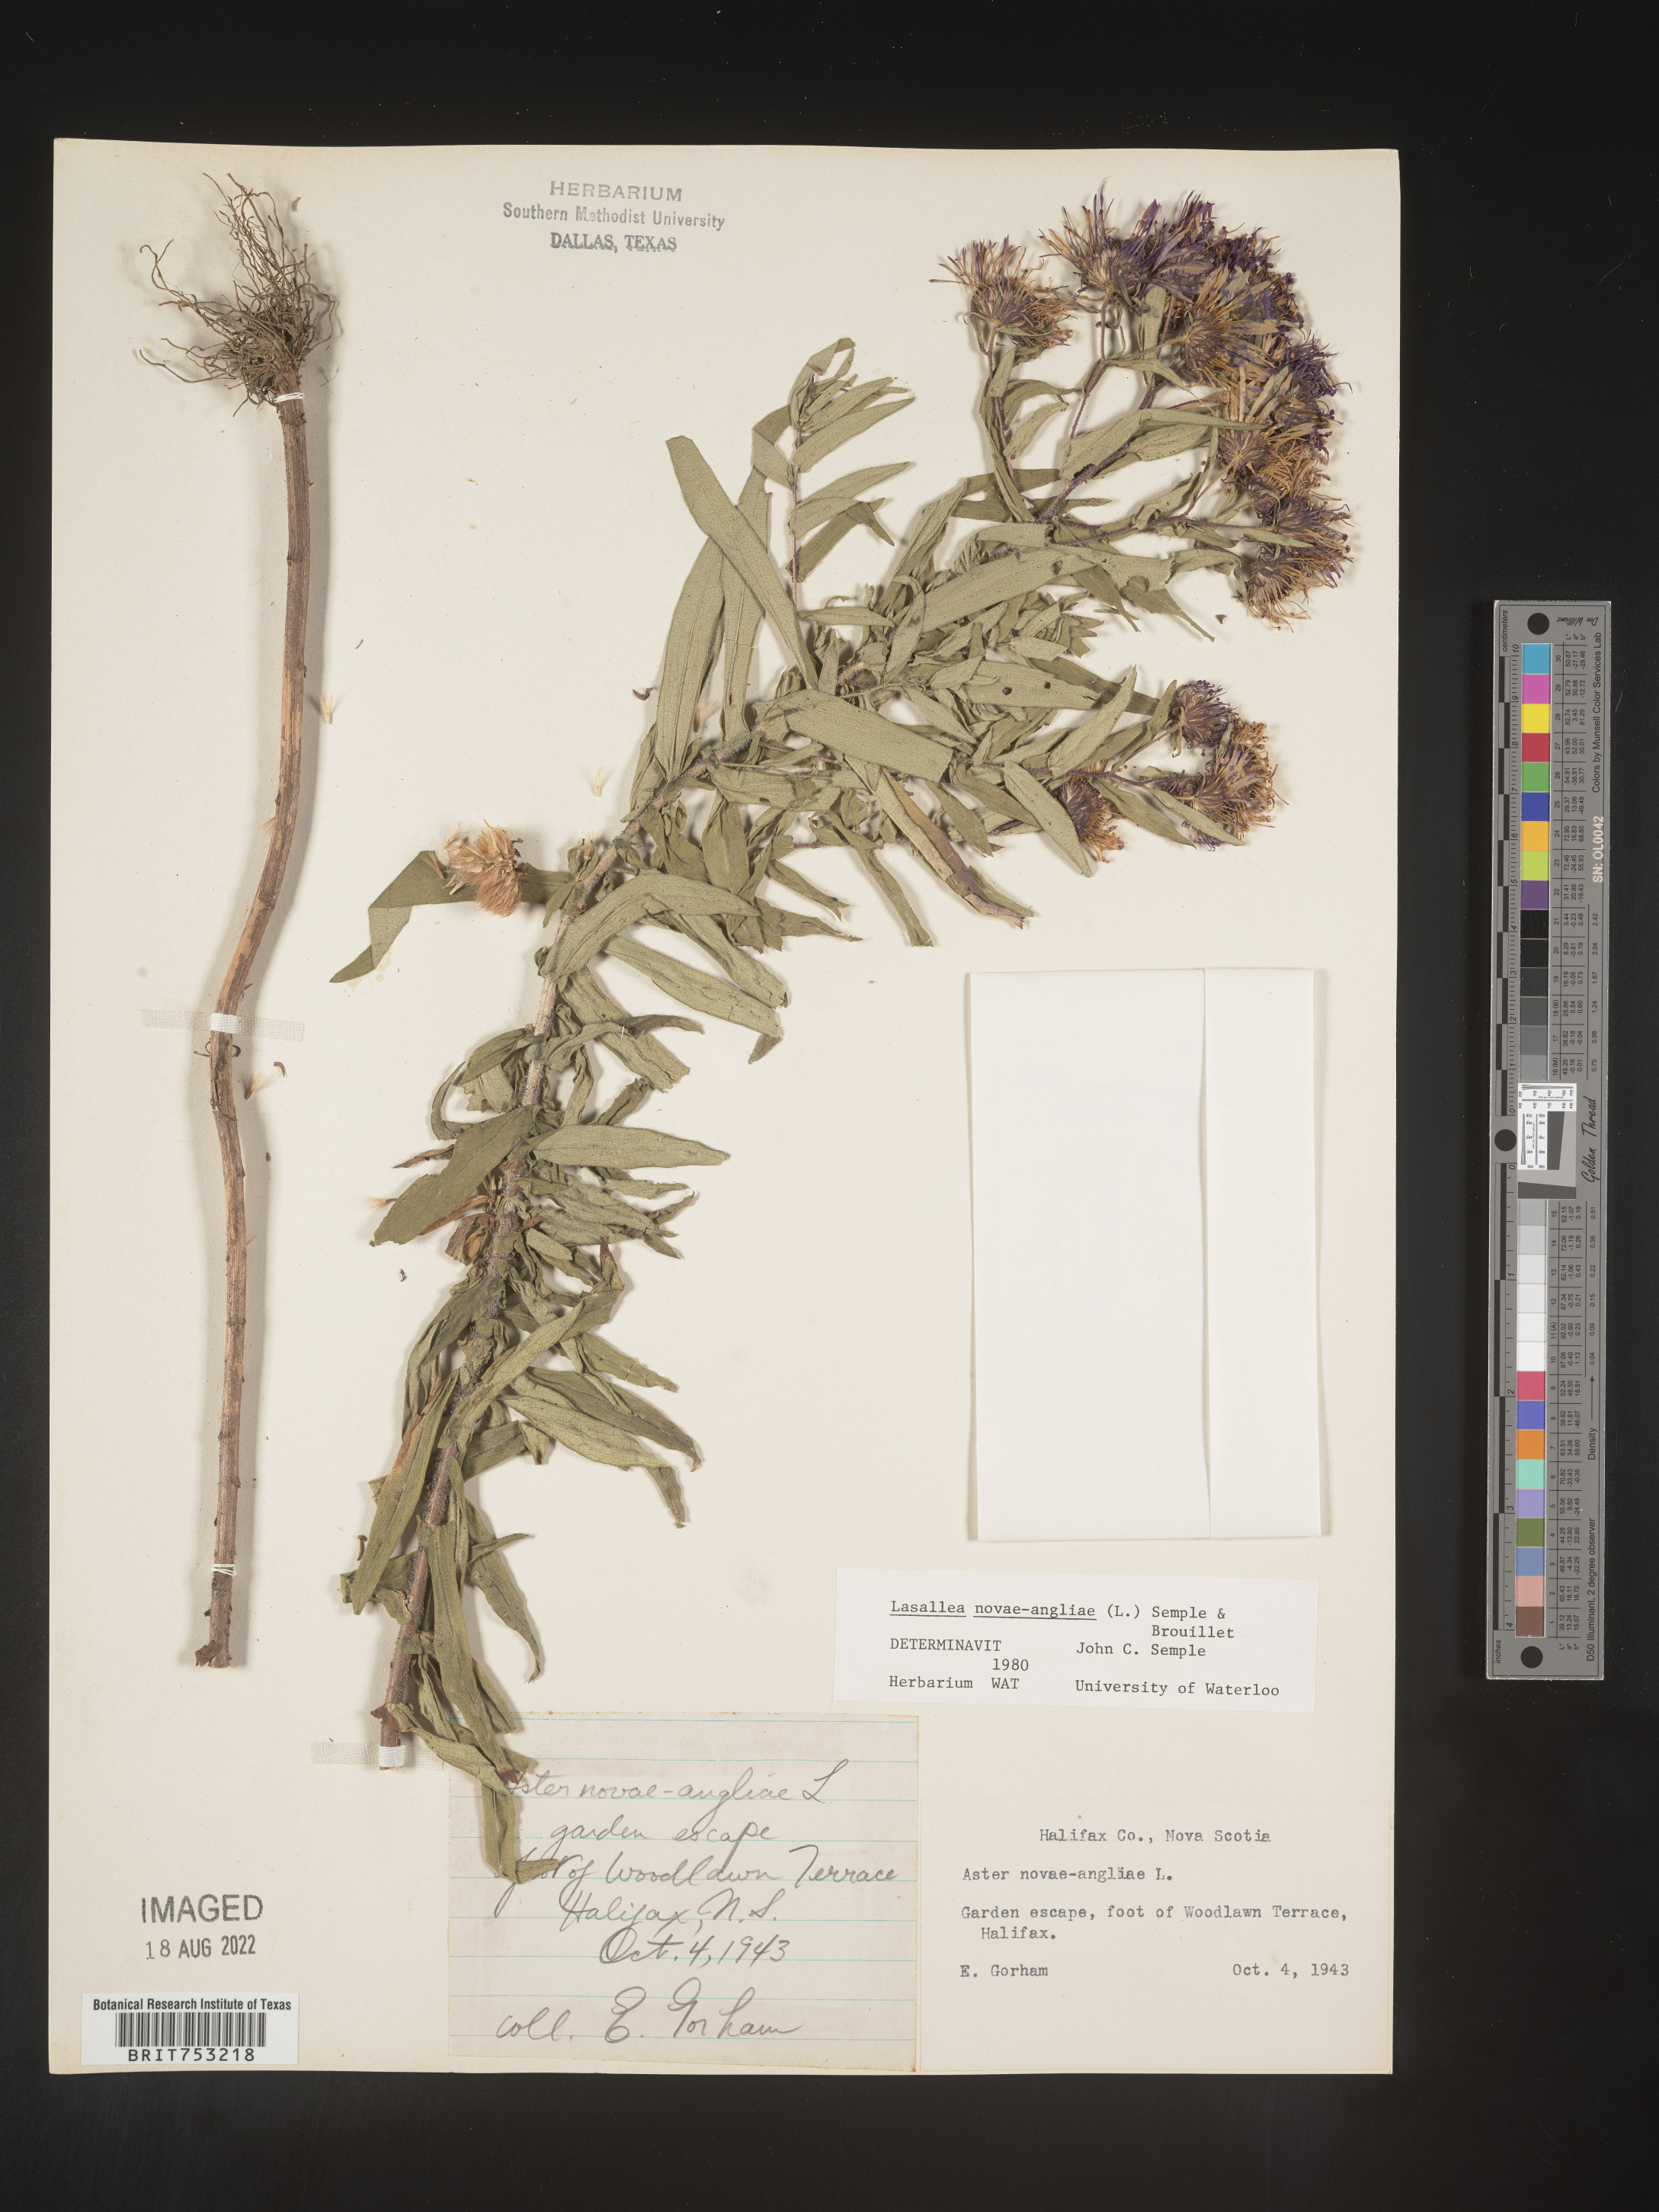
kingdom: Plantae
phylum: Tracheophyta
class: Magnoliopsida
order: Asterales
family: Asteraceae
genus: Symphyotrichum
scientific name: Symphyotrichum novi-belgii
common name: Michaelmas daisy
